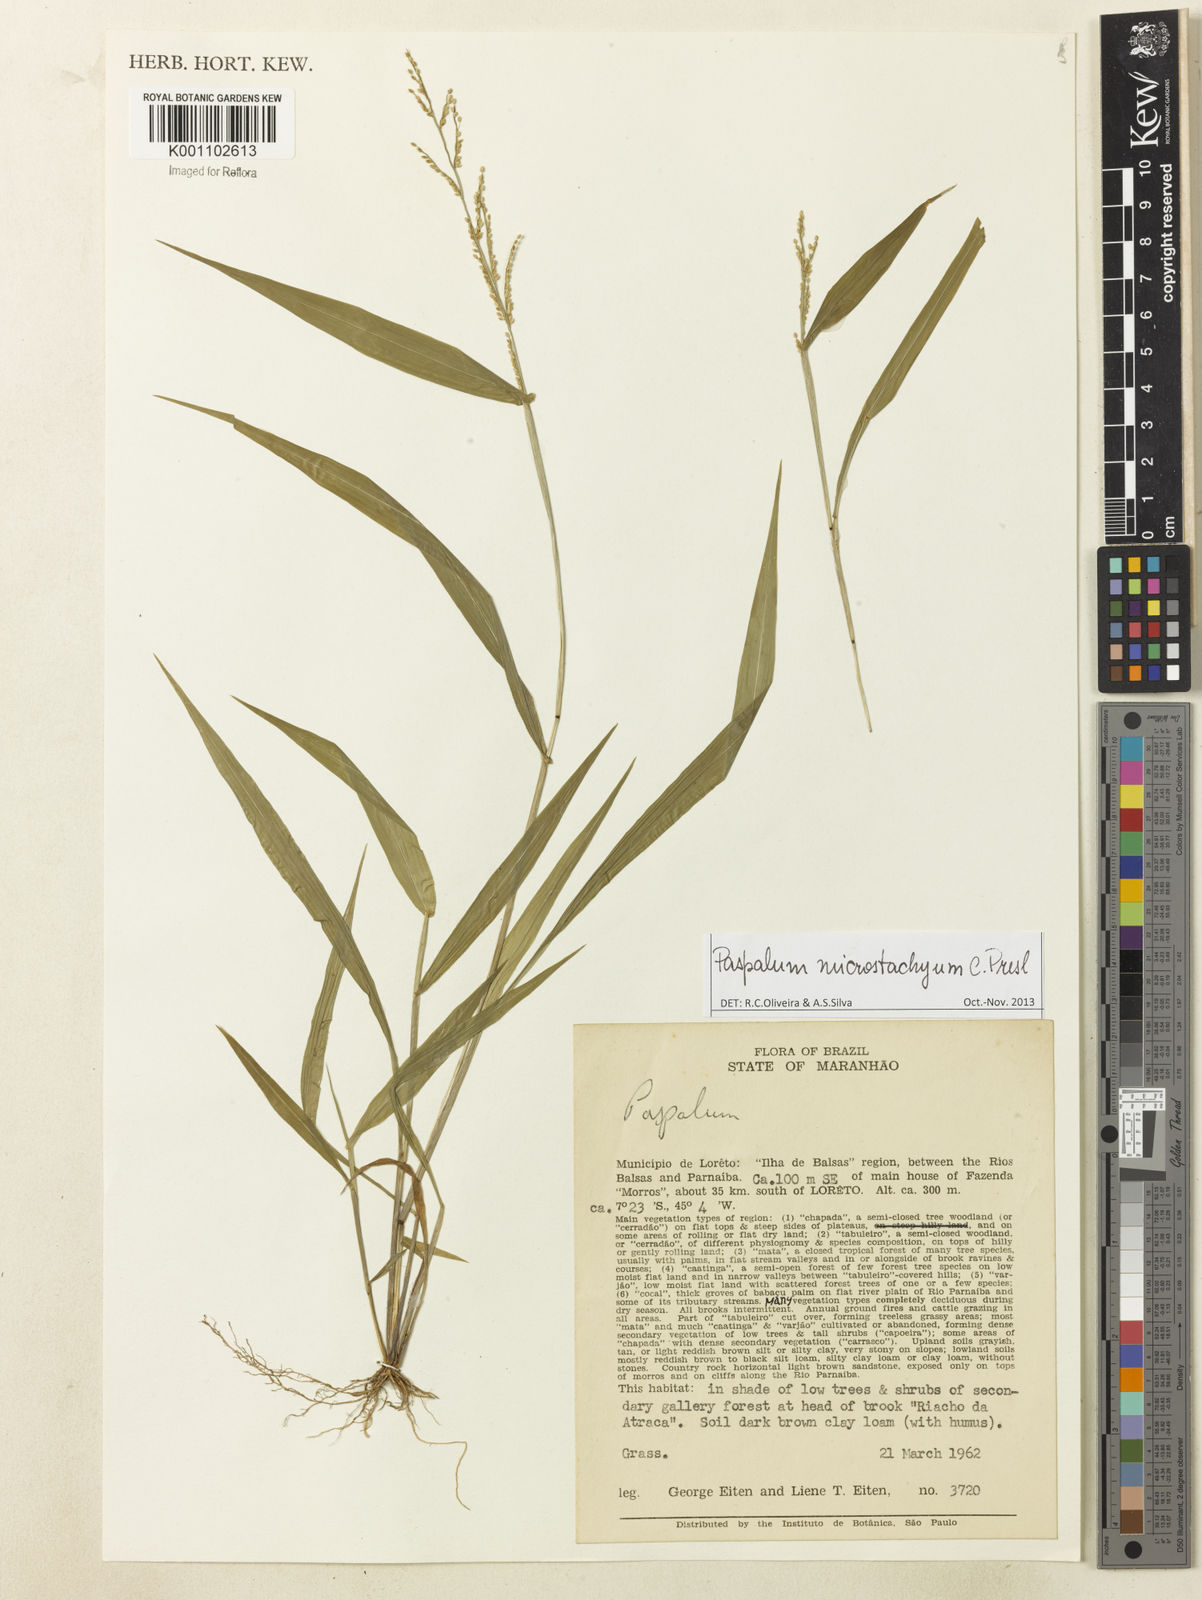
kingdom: Plantae
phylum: Tracheophyta
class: Liliopsida
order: Poales
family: Poaceae
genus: Paspalum
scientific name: Paspalum microstachyum
